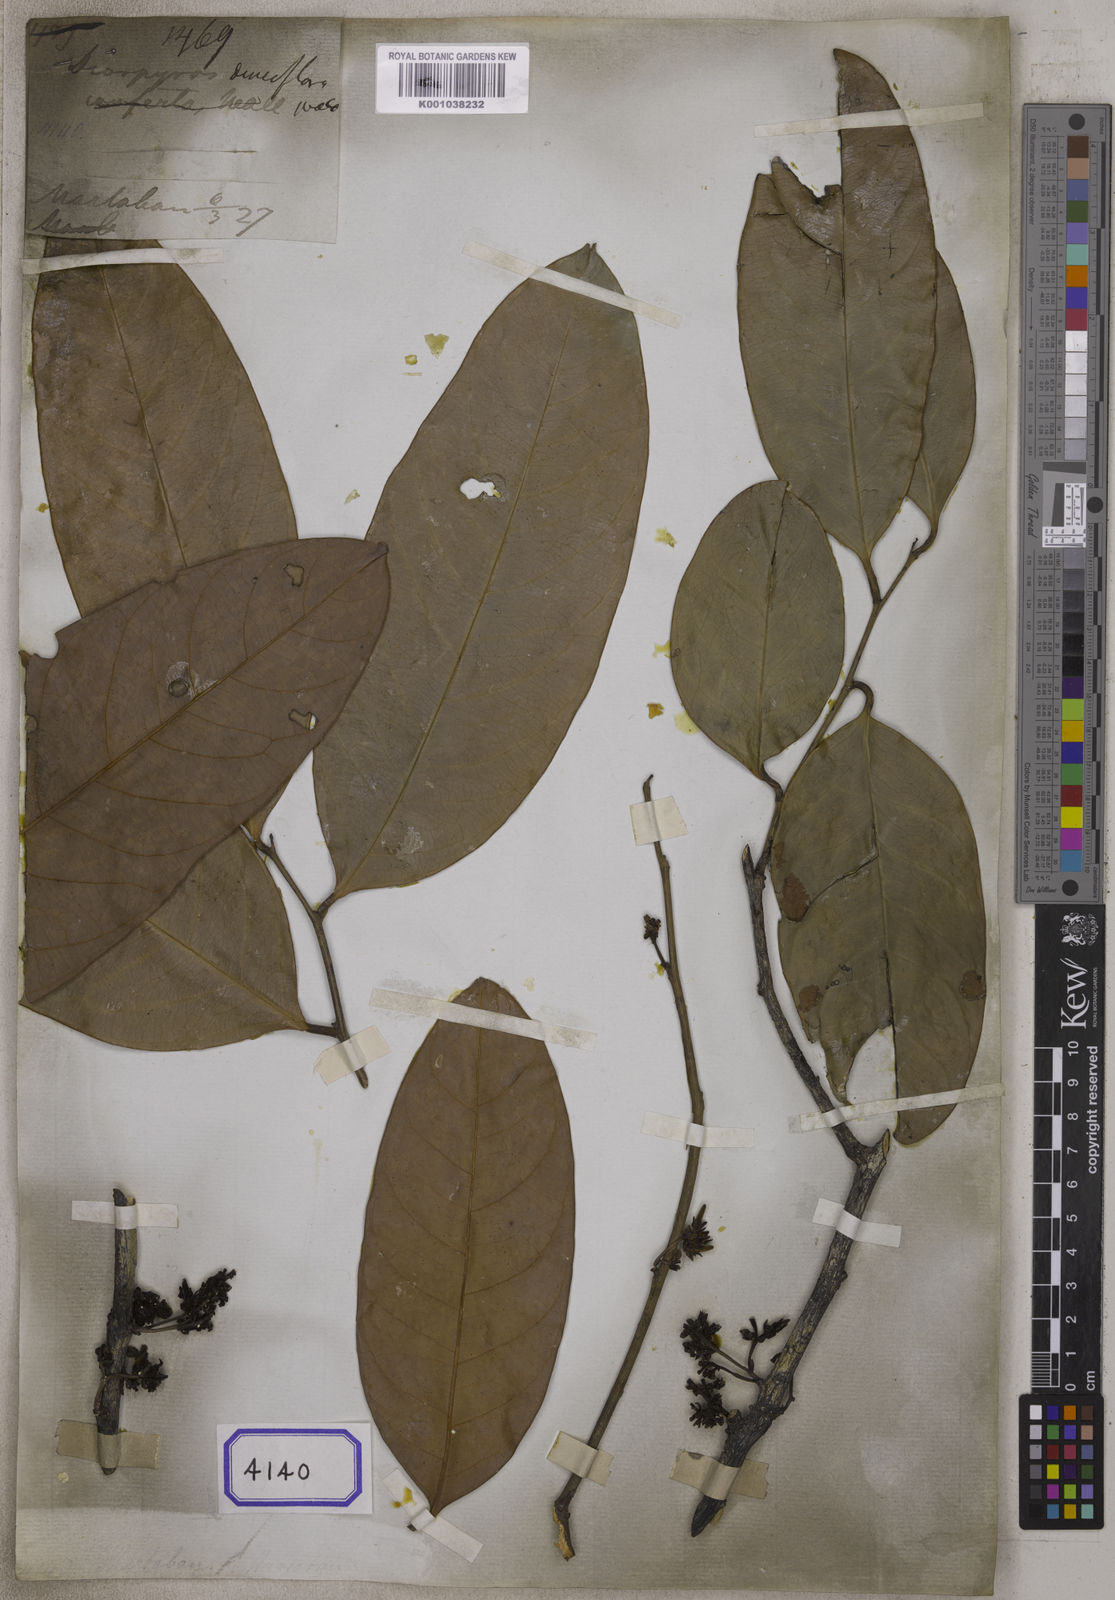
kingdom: Plantae
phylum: Tracheophyta
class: Magnoliopsida
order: Ericales
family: Ebenaceae
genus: Diospyros
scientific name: Diospyros
